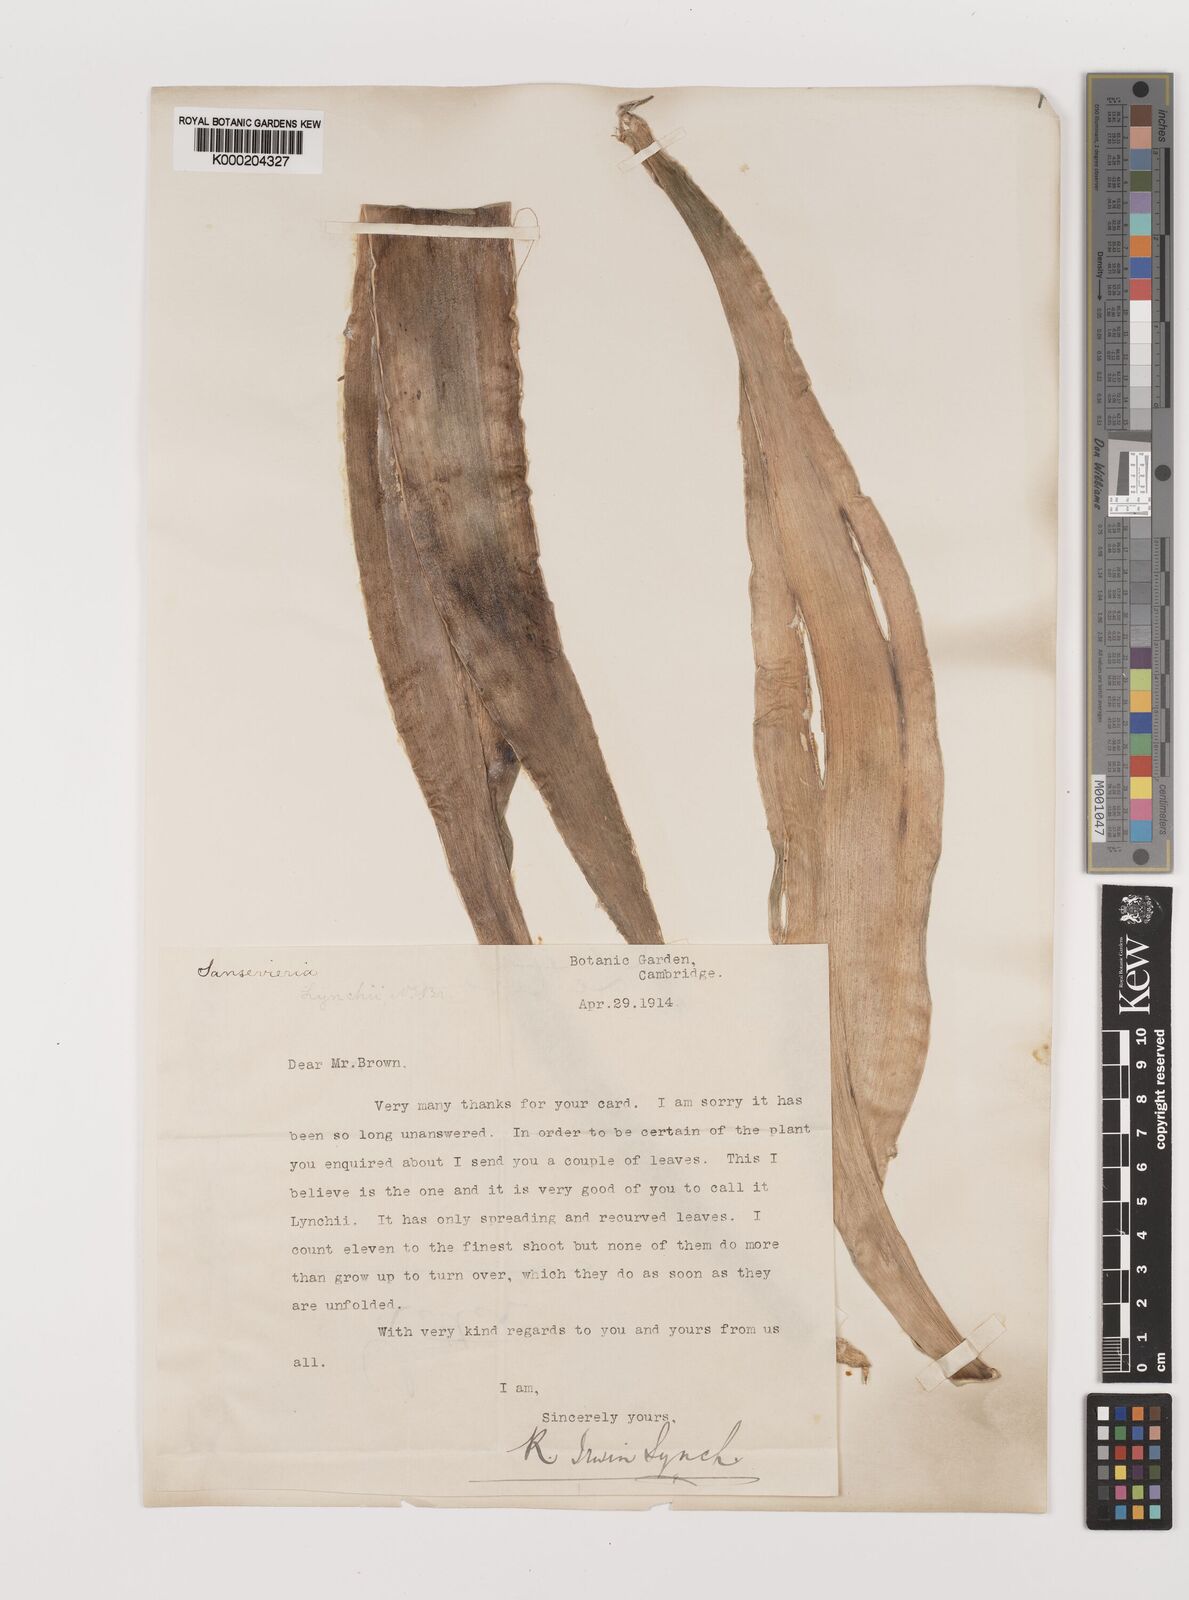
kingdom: Plantae
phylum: Tracheophyta
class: Liliopsida
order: Asparagales
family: Asparagaceae
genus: Dracaena
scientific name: Dracaena
